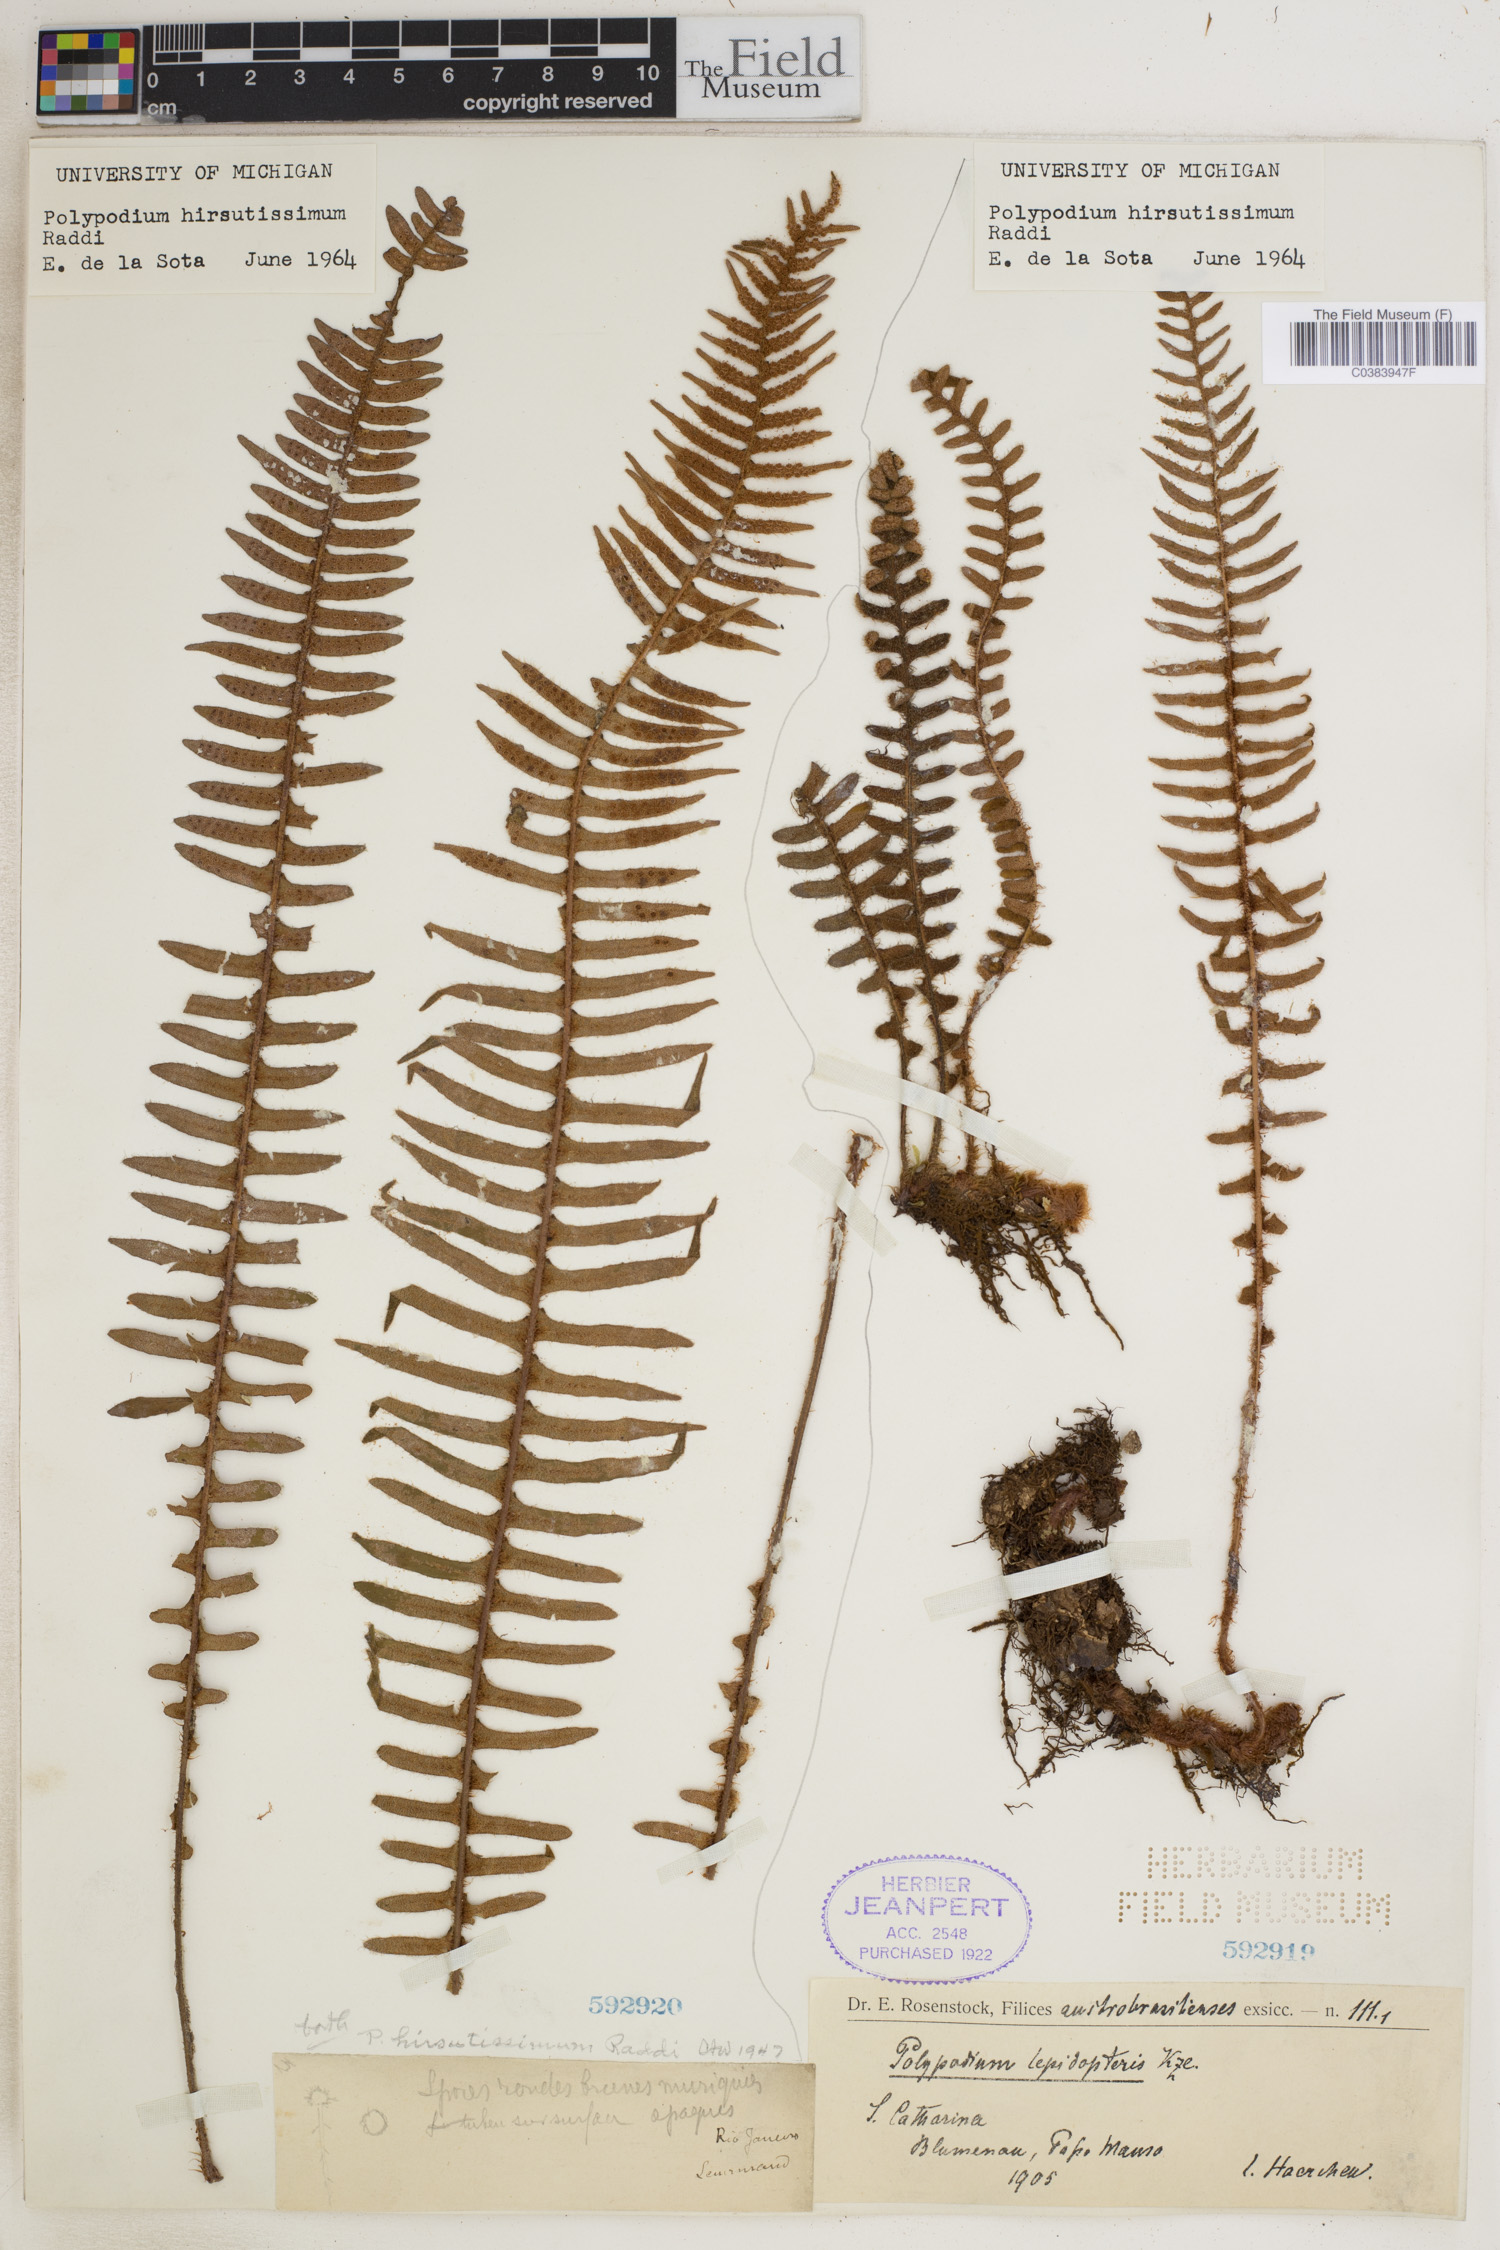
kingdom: Plantae
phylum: Tracheophyta
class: Polypodiopsida
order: Polypodiales
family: Polypodiaceae
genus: Pleopeltis
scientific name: Pleopeltis hirsutissima
